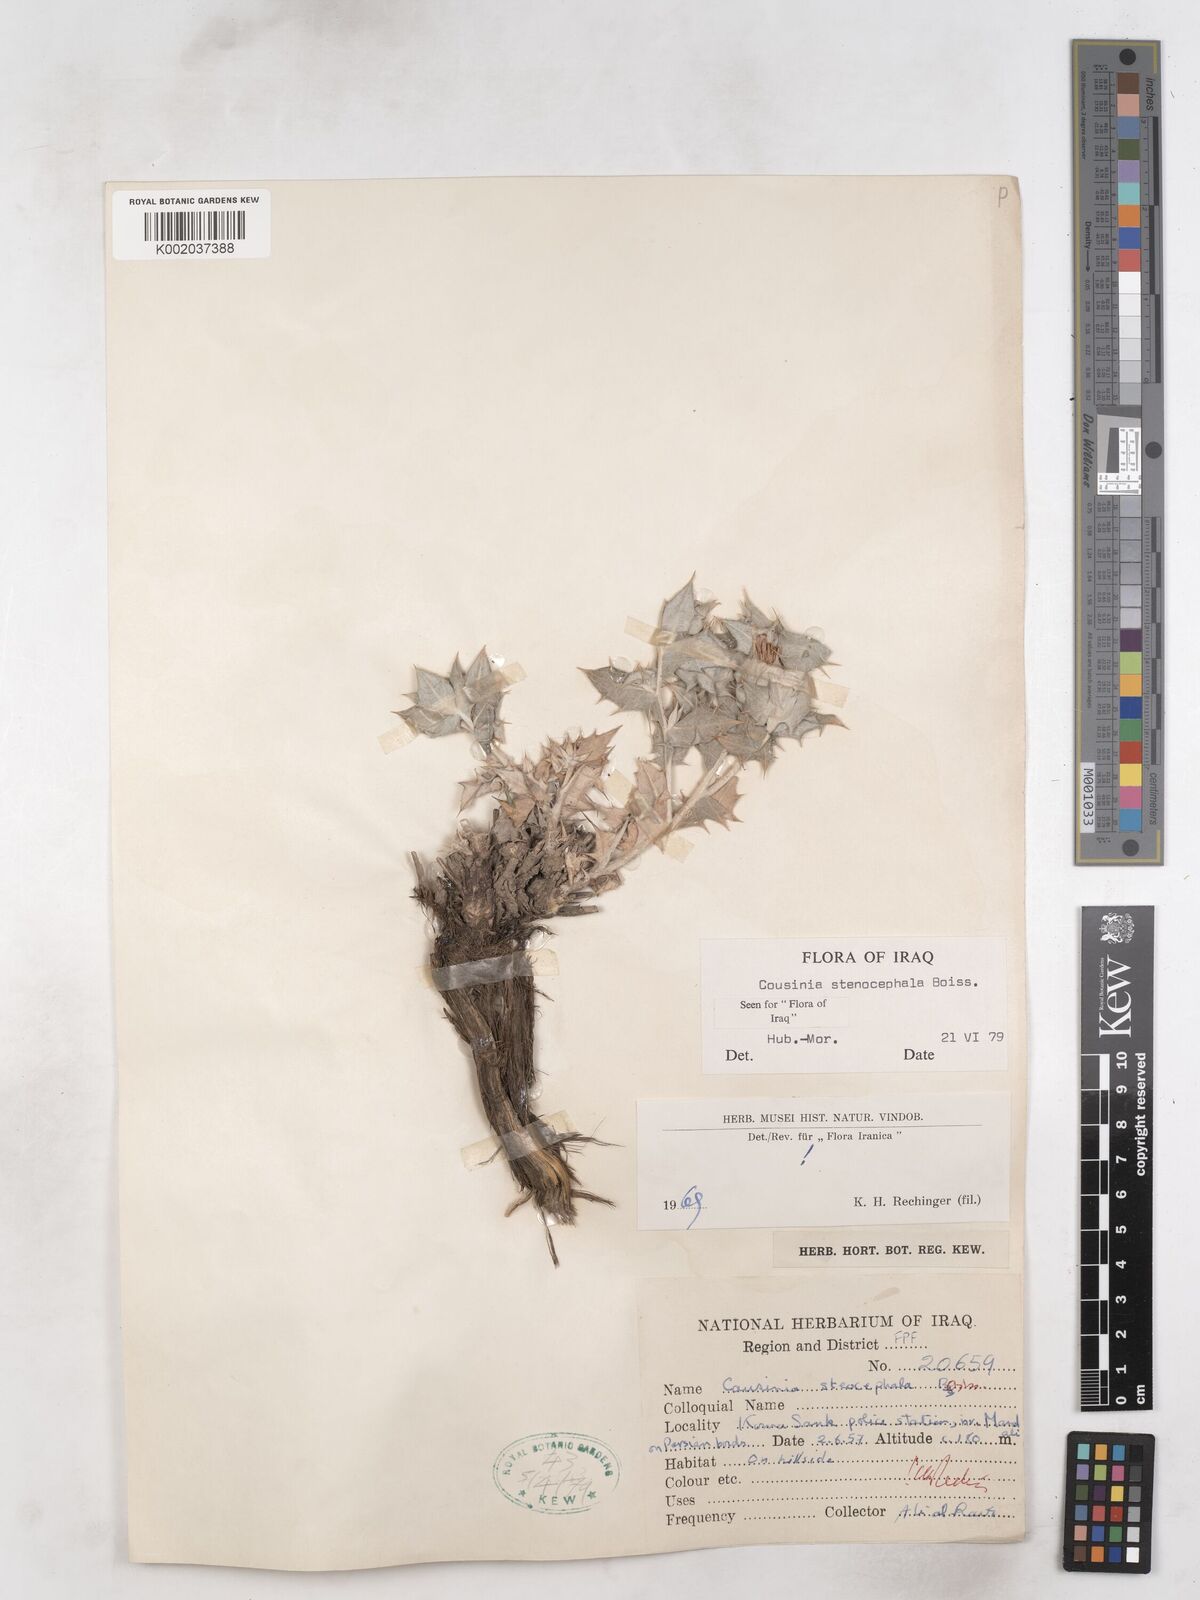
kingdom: Plantae
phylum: Tracheophyta
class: Magnoliopsida
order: Asterales
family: Asteraceae
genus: Cousinia
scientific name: Cousinia stenocephala
